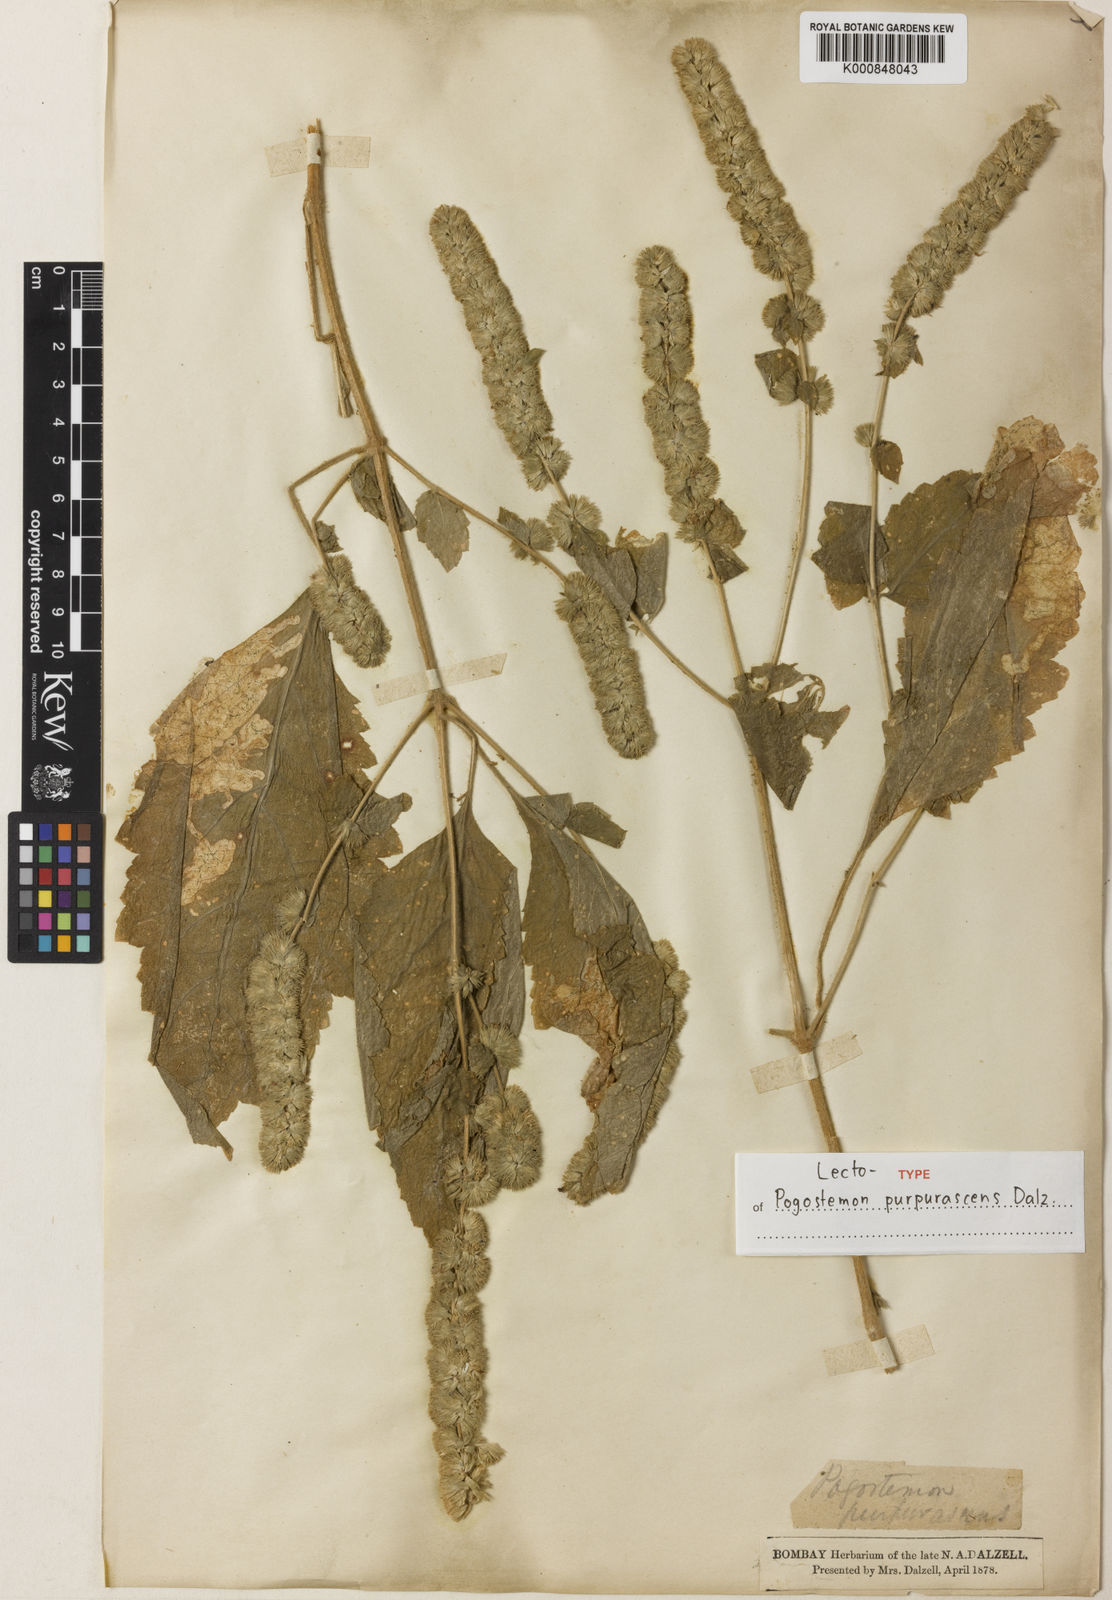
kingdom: Plantae
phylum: Tracheophyta
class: Magnoliopsida
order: Lamiales
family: Lamiaceae
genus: Pogostemon
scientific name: Pogostemon purpurascens
